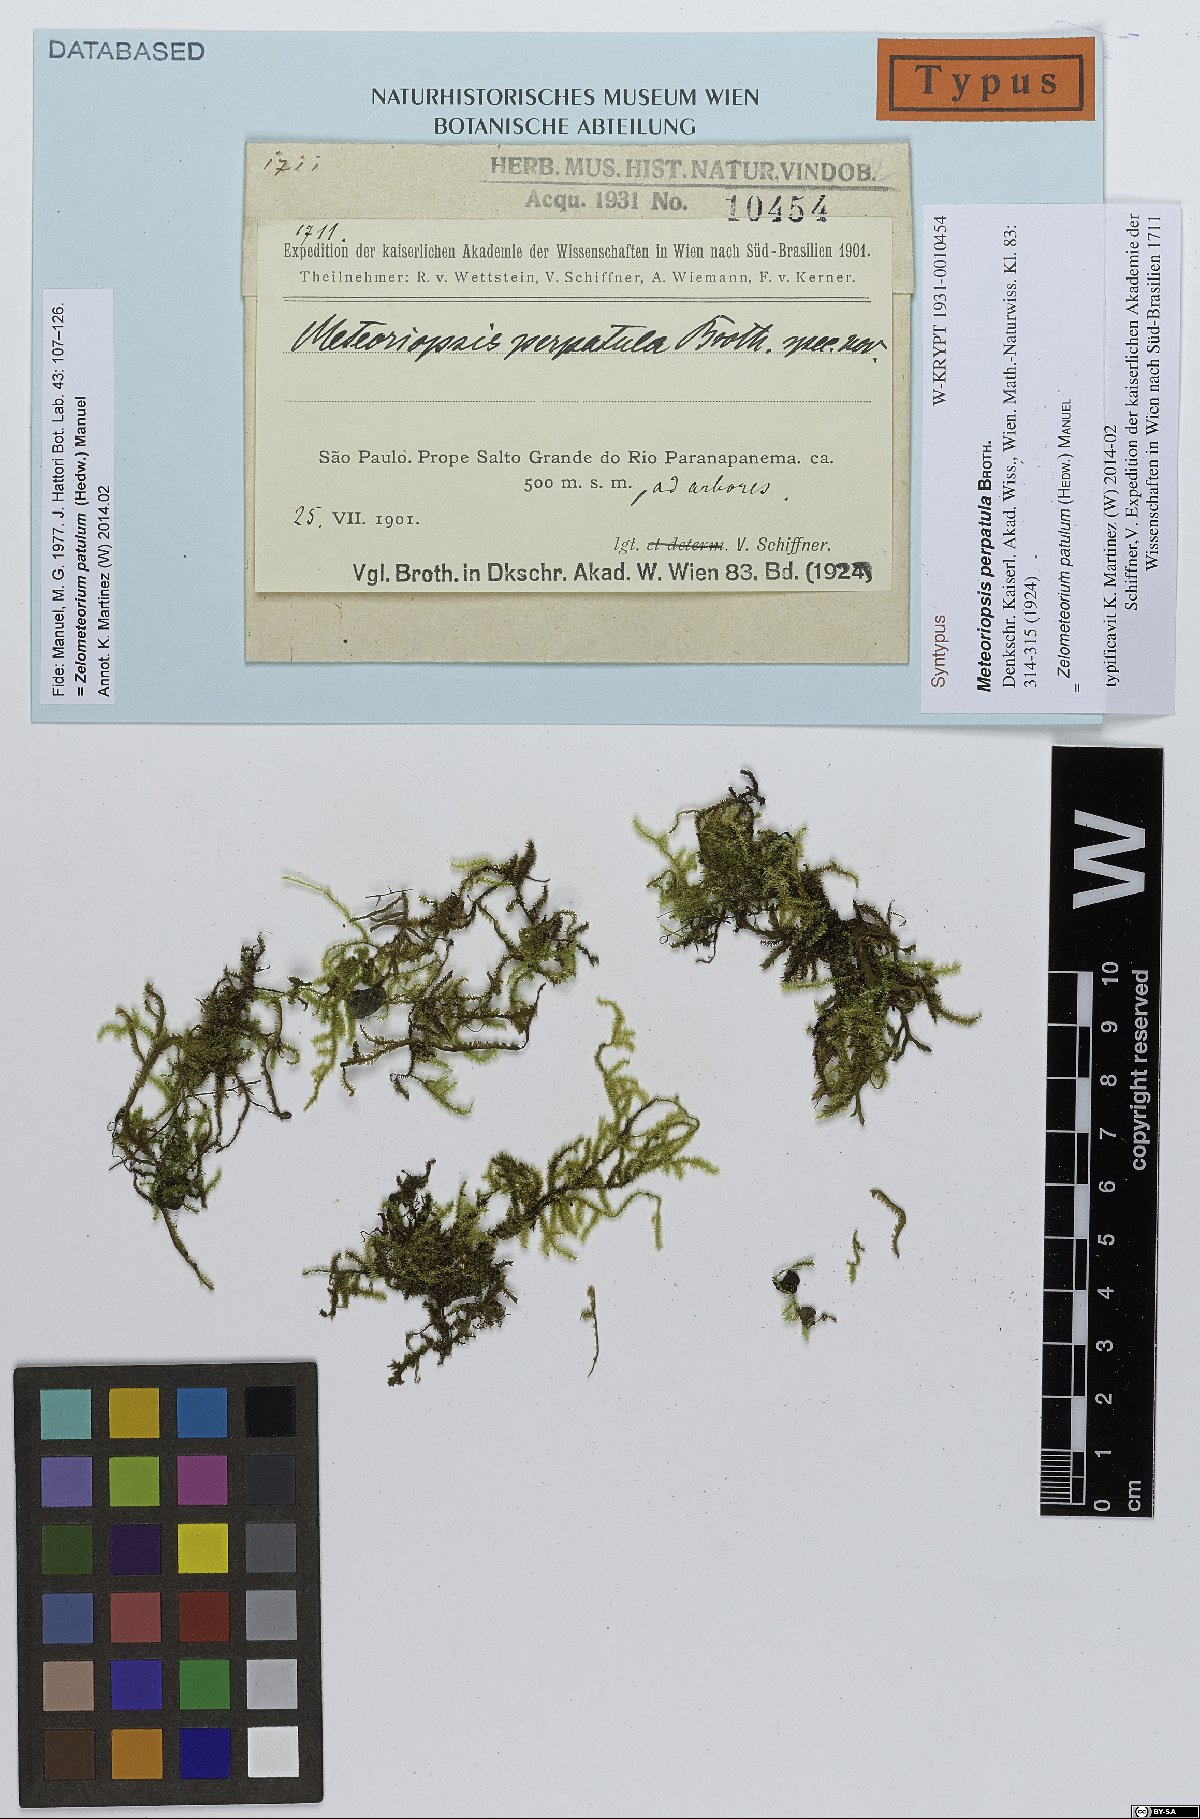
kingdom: Plantae
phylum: Bryophyta
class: Bryopsida
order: Hypnales
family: Brachytheciaceae
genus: Zelometeorium
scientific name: Zelometeorium patulum
